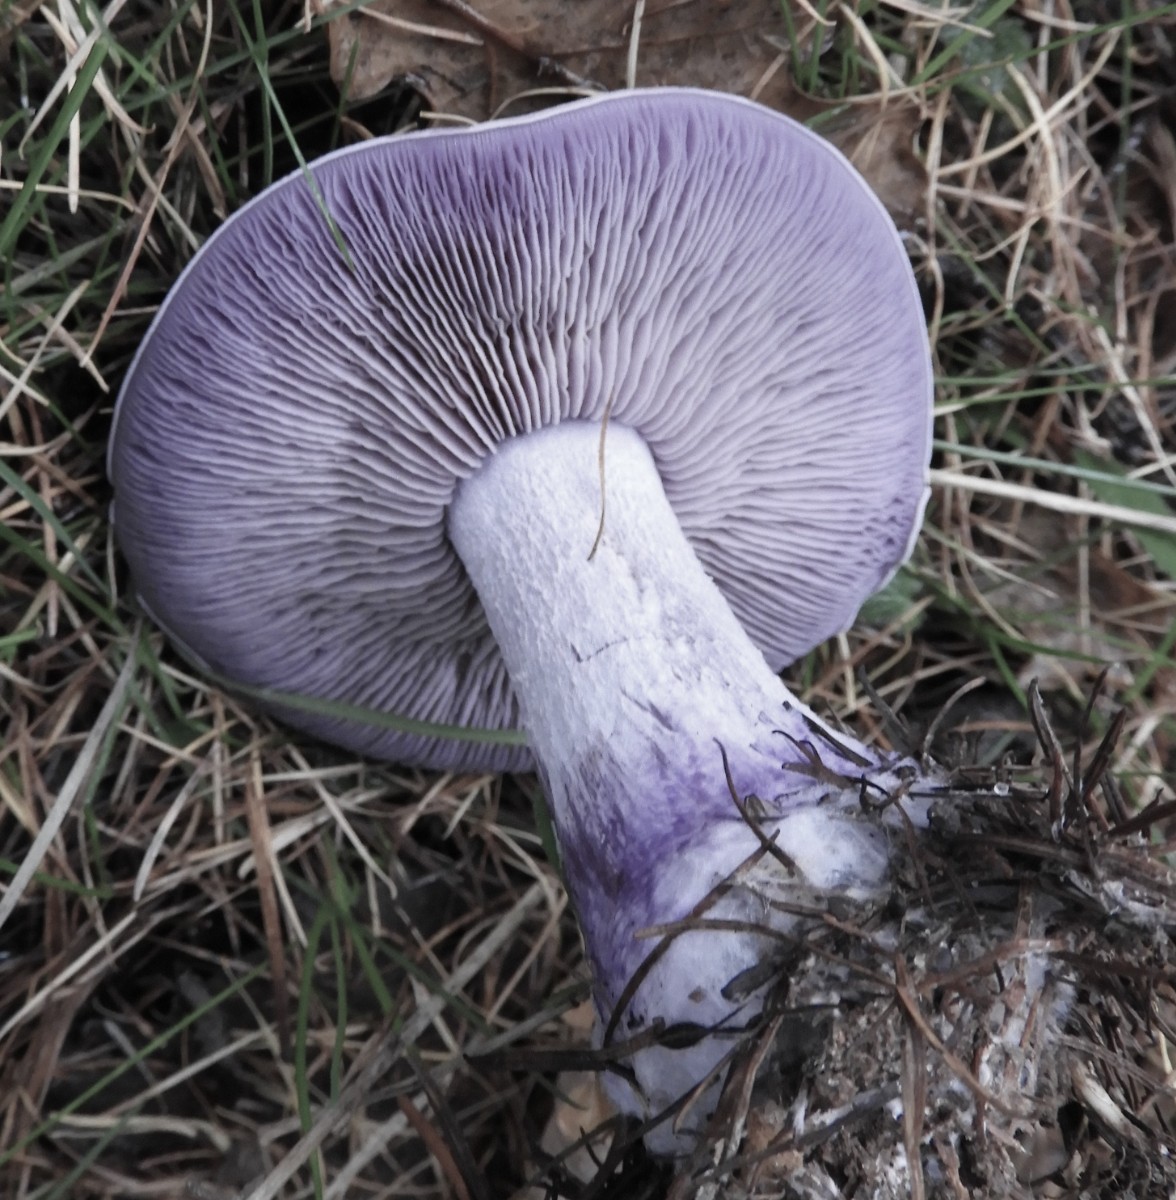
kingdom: Fungi
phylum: Basidiomycota
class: Agaricomycetes
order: Agaricales
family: Tricholomataceae
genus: Lepista
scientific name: Lepista nuda
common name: violet hekseringshat
